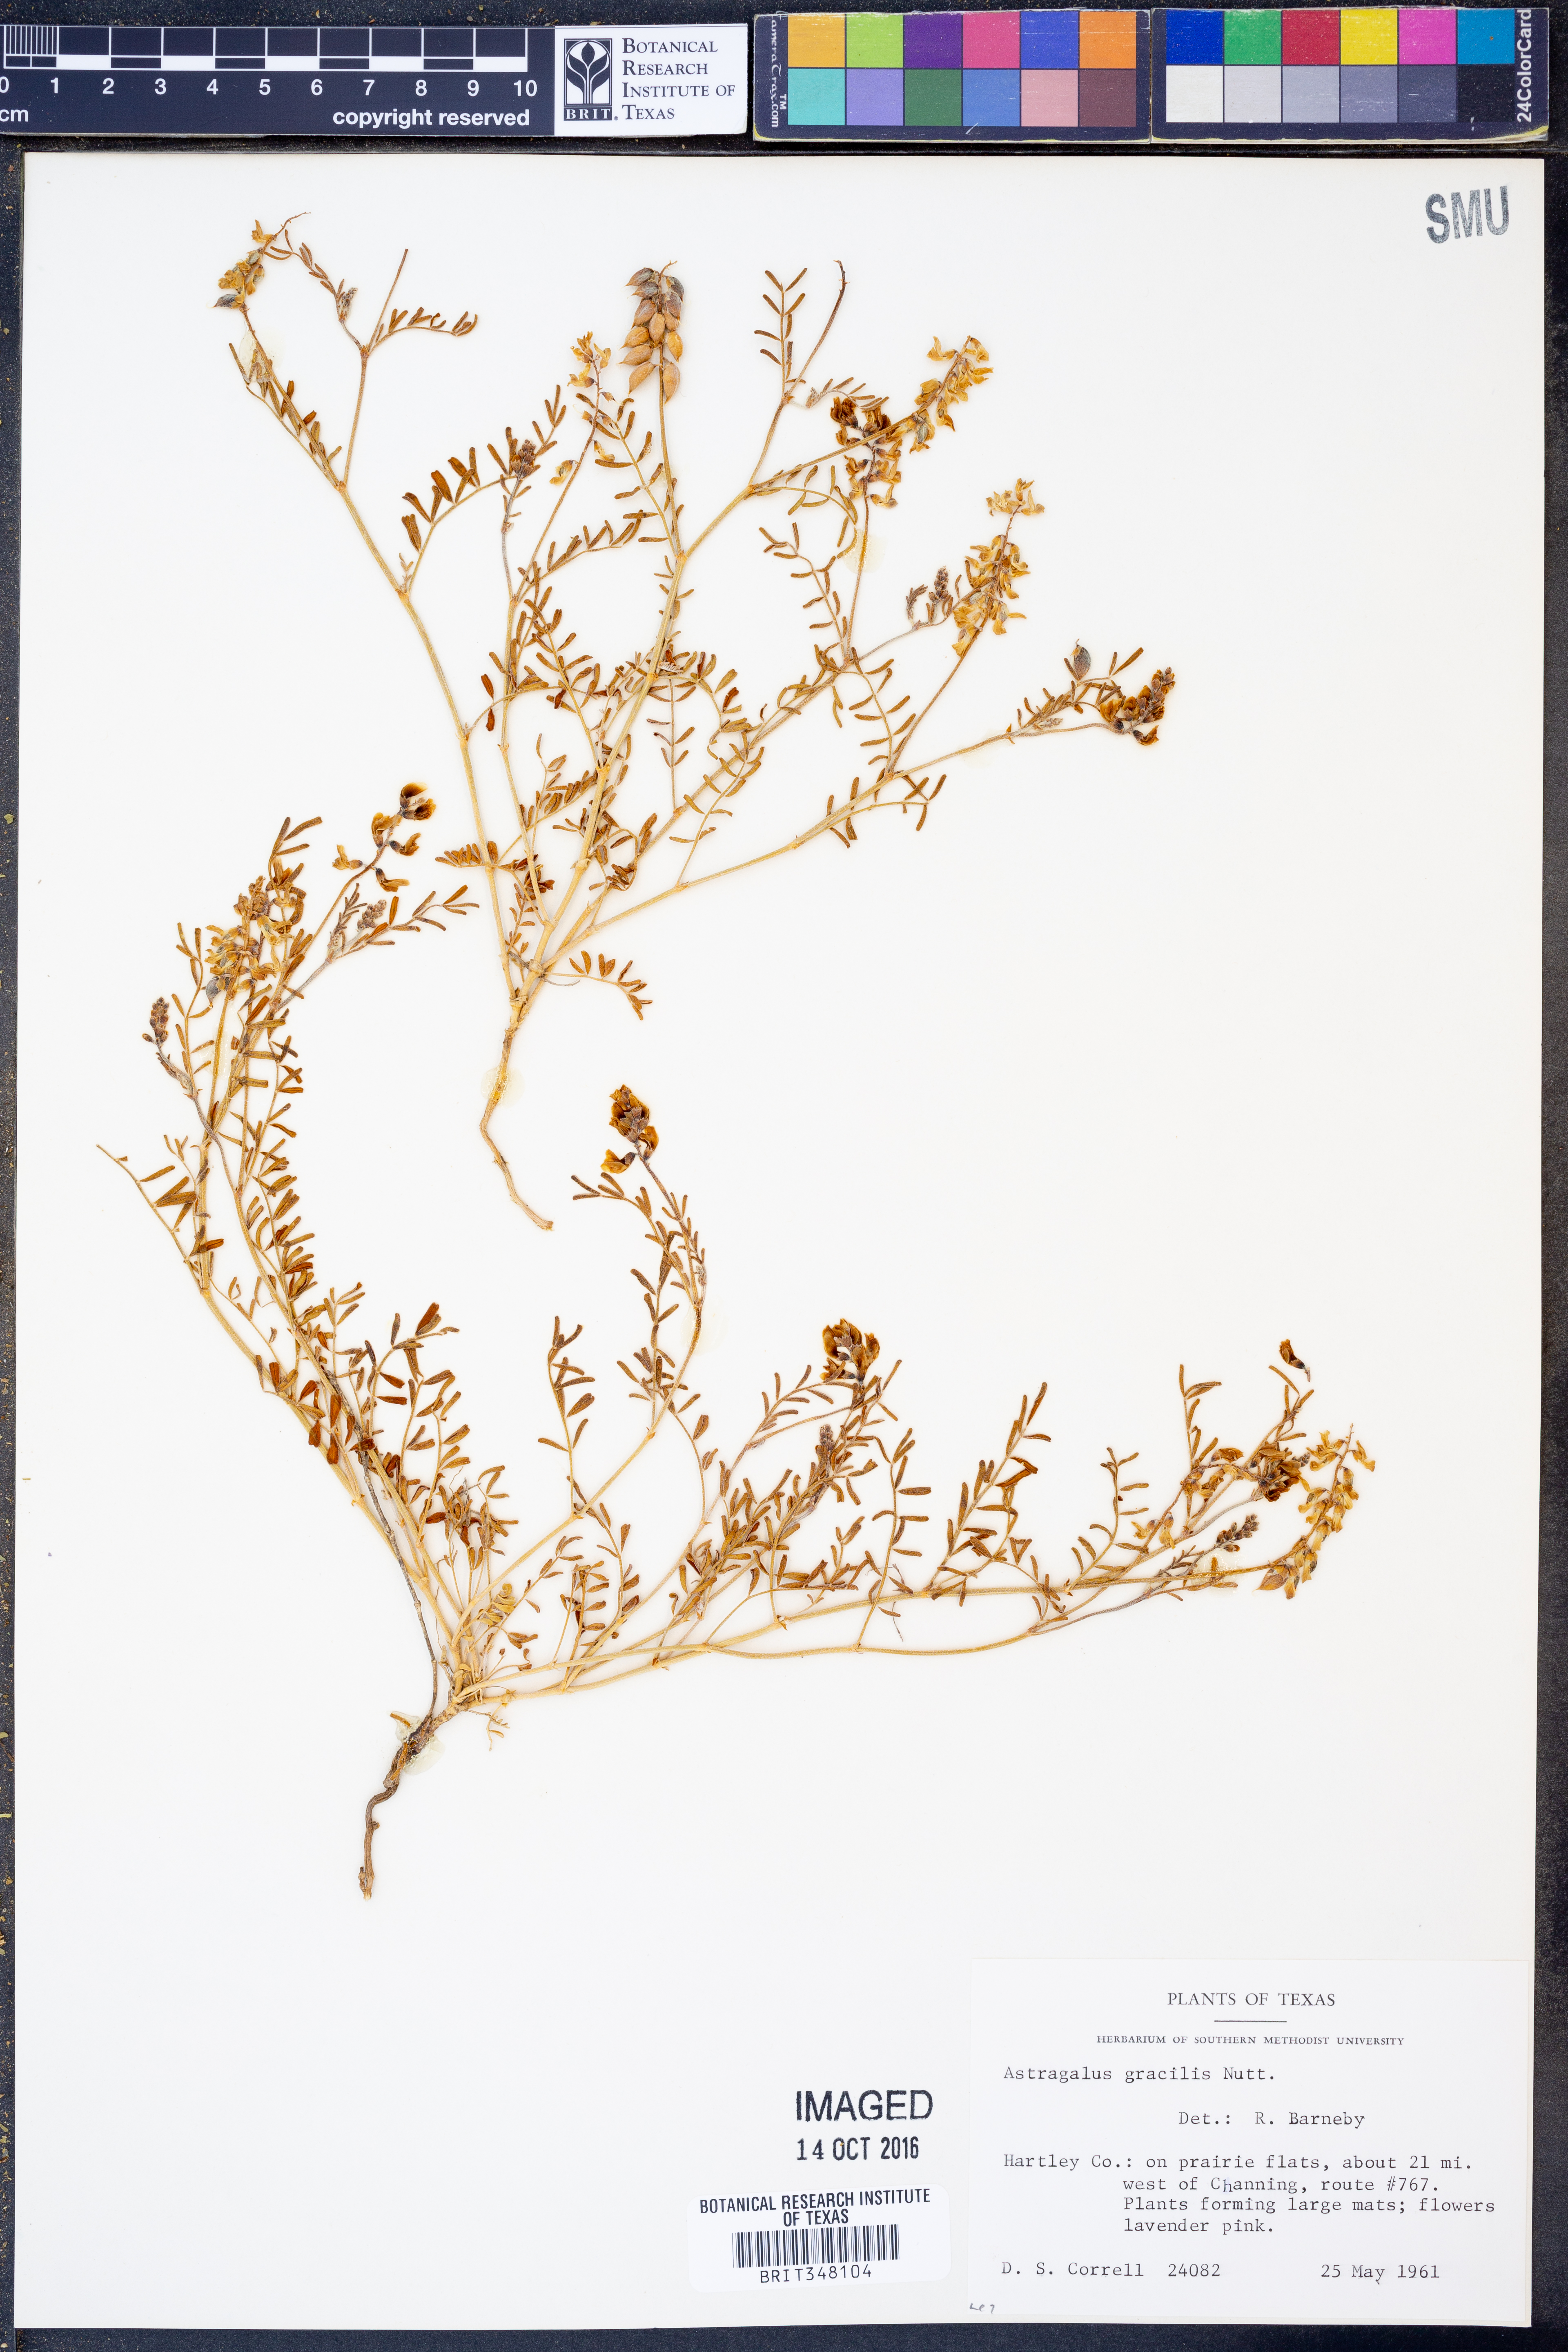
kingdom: Plantae
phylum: Tracheophyta
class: Magnoliopsida
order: Fabales
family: Fabaceae
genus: Astragalus
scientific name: Astragalus gracilis
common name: Slender milk-vetch
